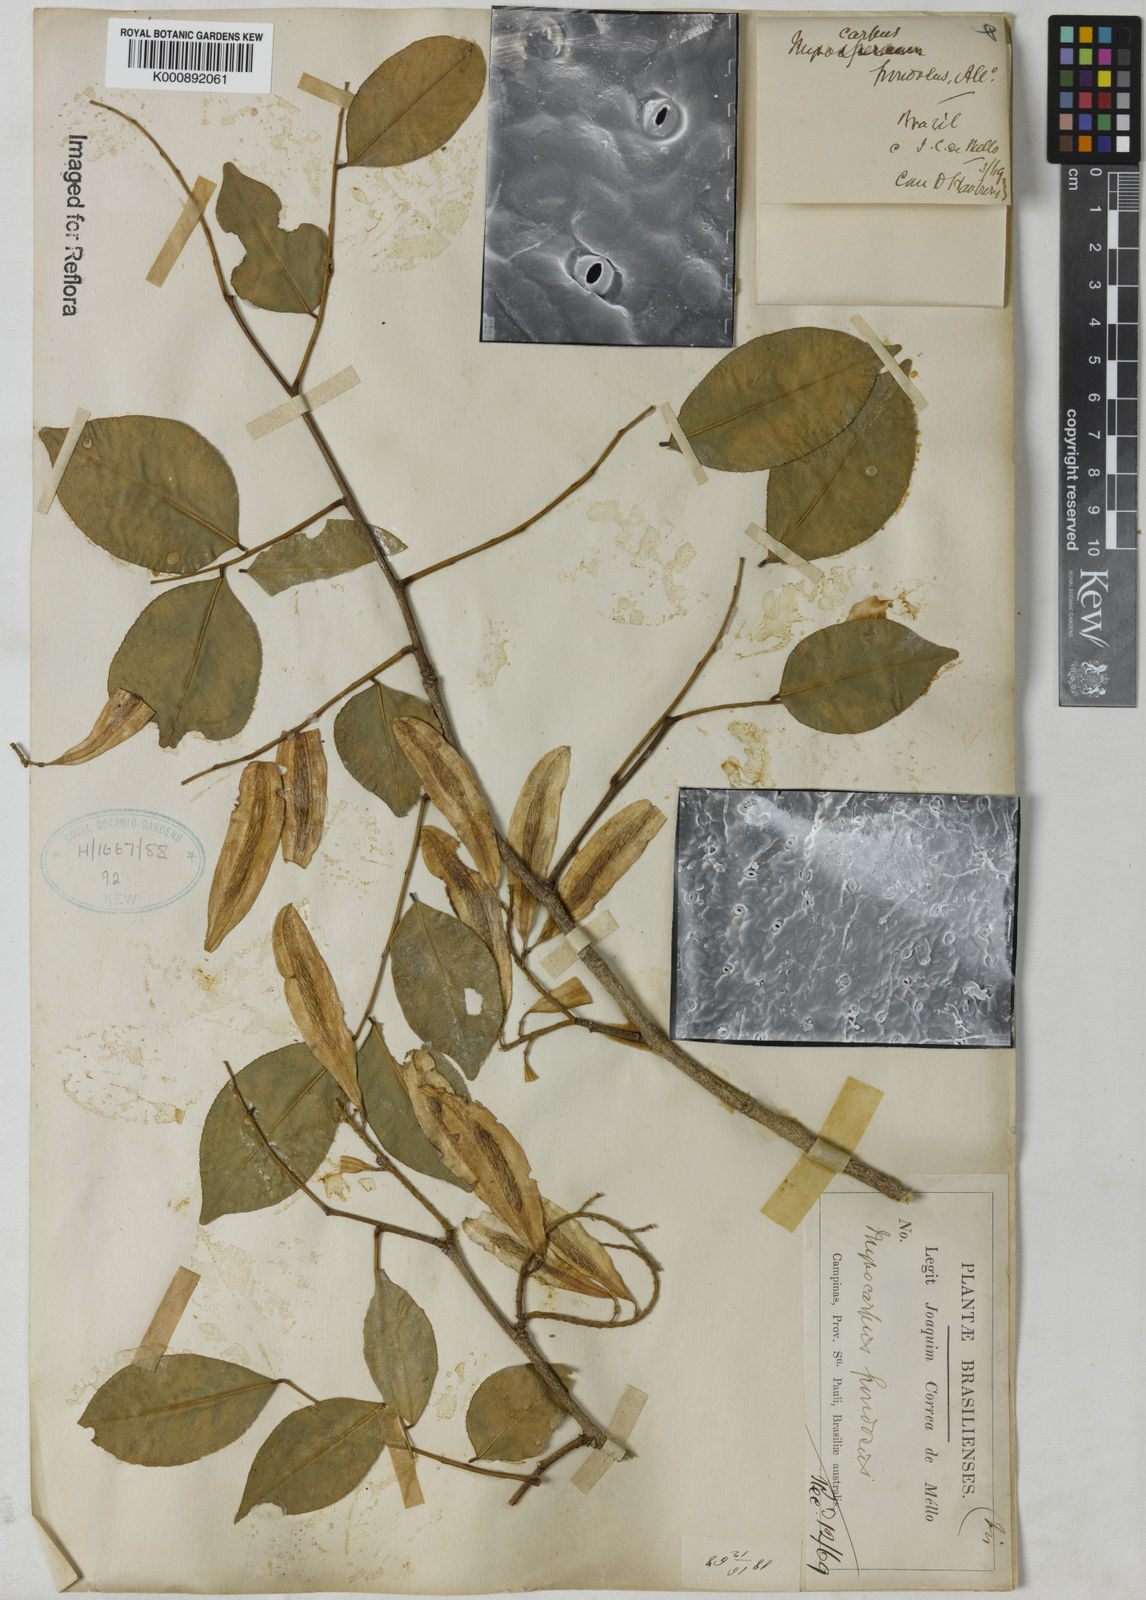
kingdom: Plantae
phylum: Tracheophyta
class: Magnoliopsida
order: Fabales
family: Fabaceae
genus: Myrocarpus
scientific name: Myrocarpus
